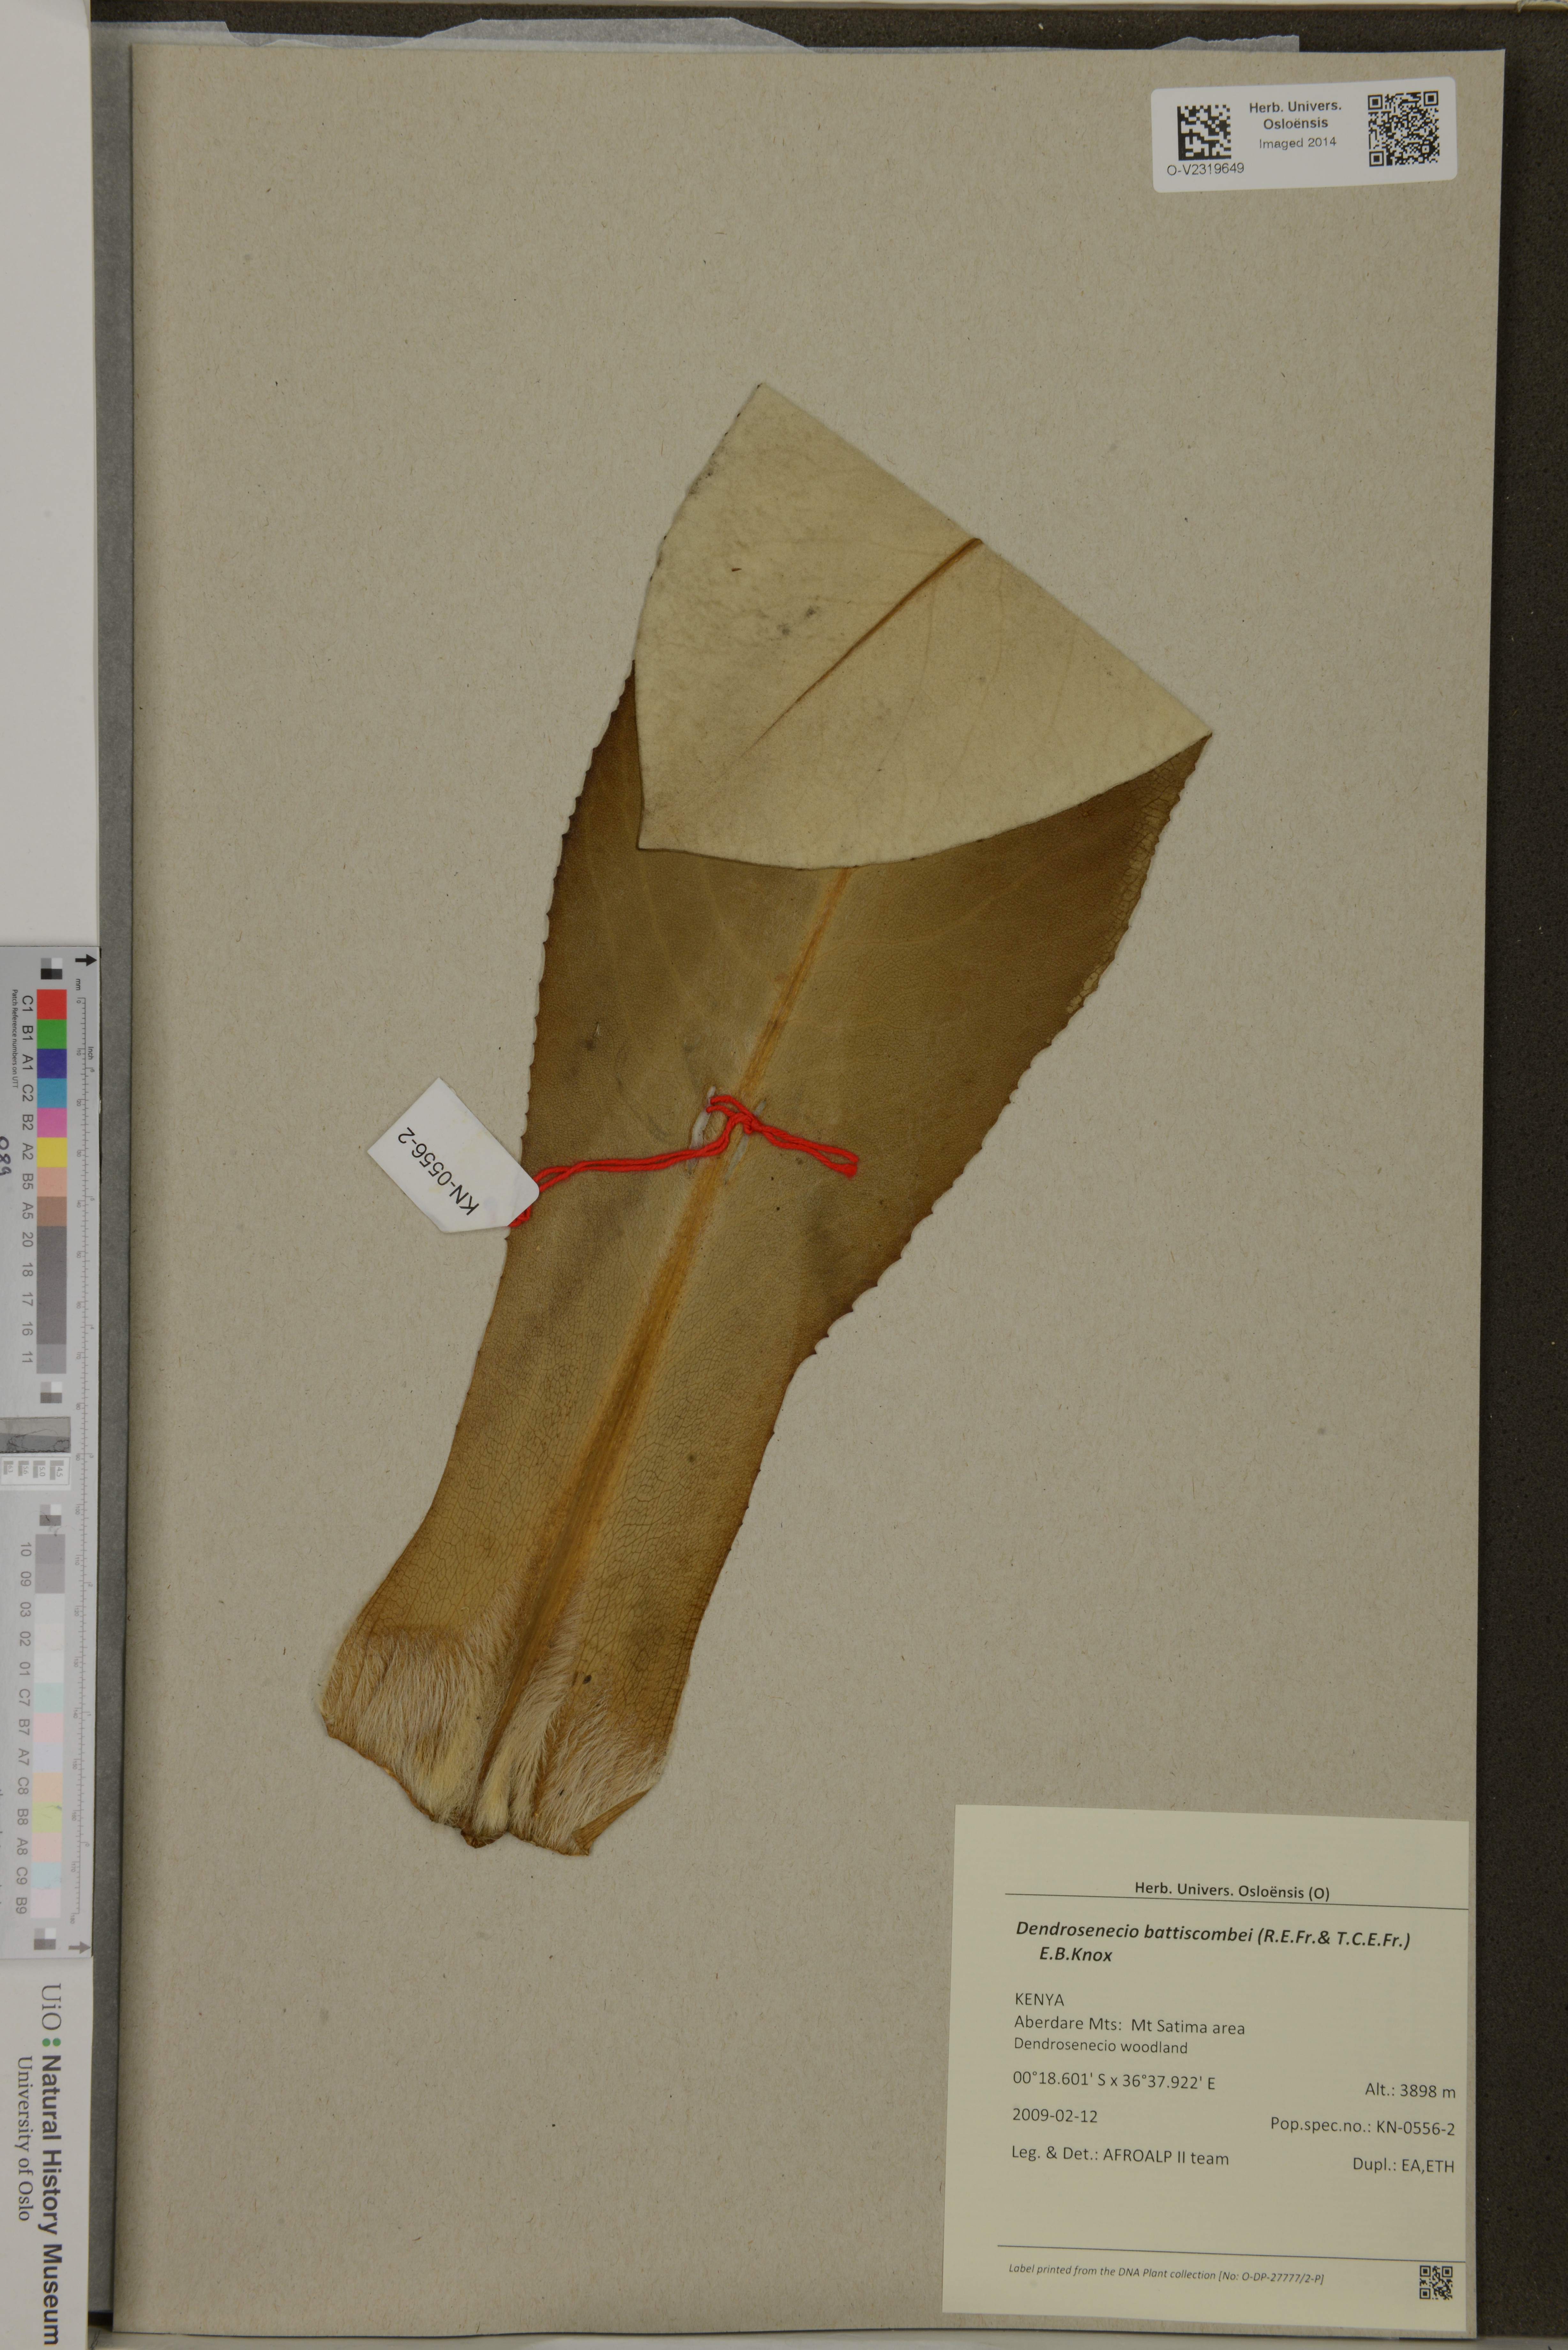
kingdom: Plantae
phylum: Tracheophyta
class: Magnoliopsida
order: Asterales
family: Asteraceae
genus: Dendrosenecio
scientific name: Dendrosenecio battiscombei
